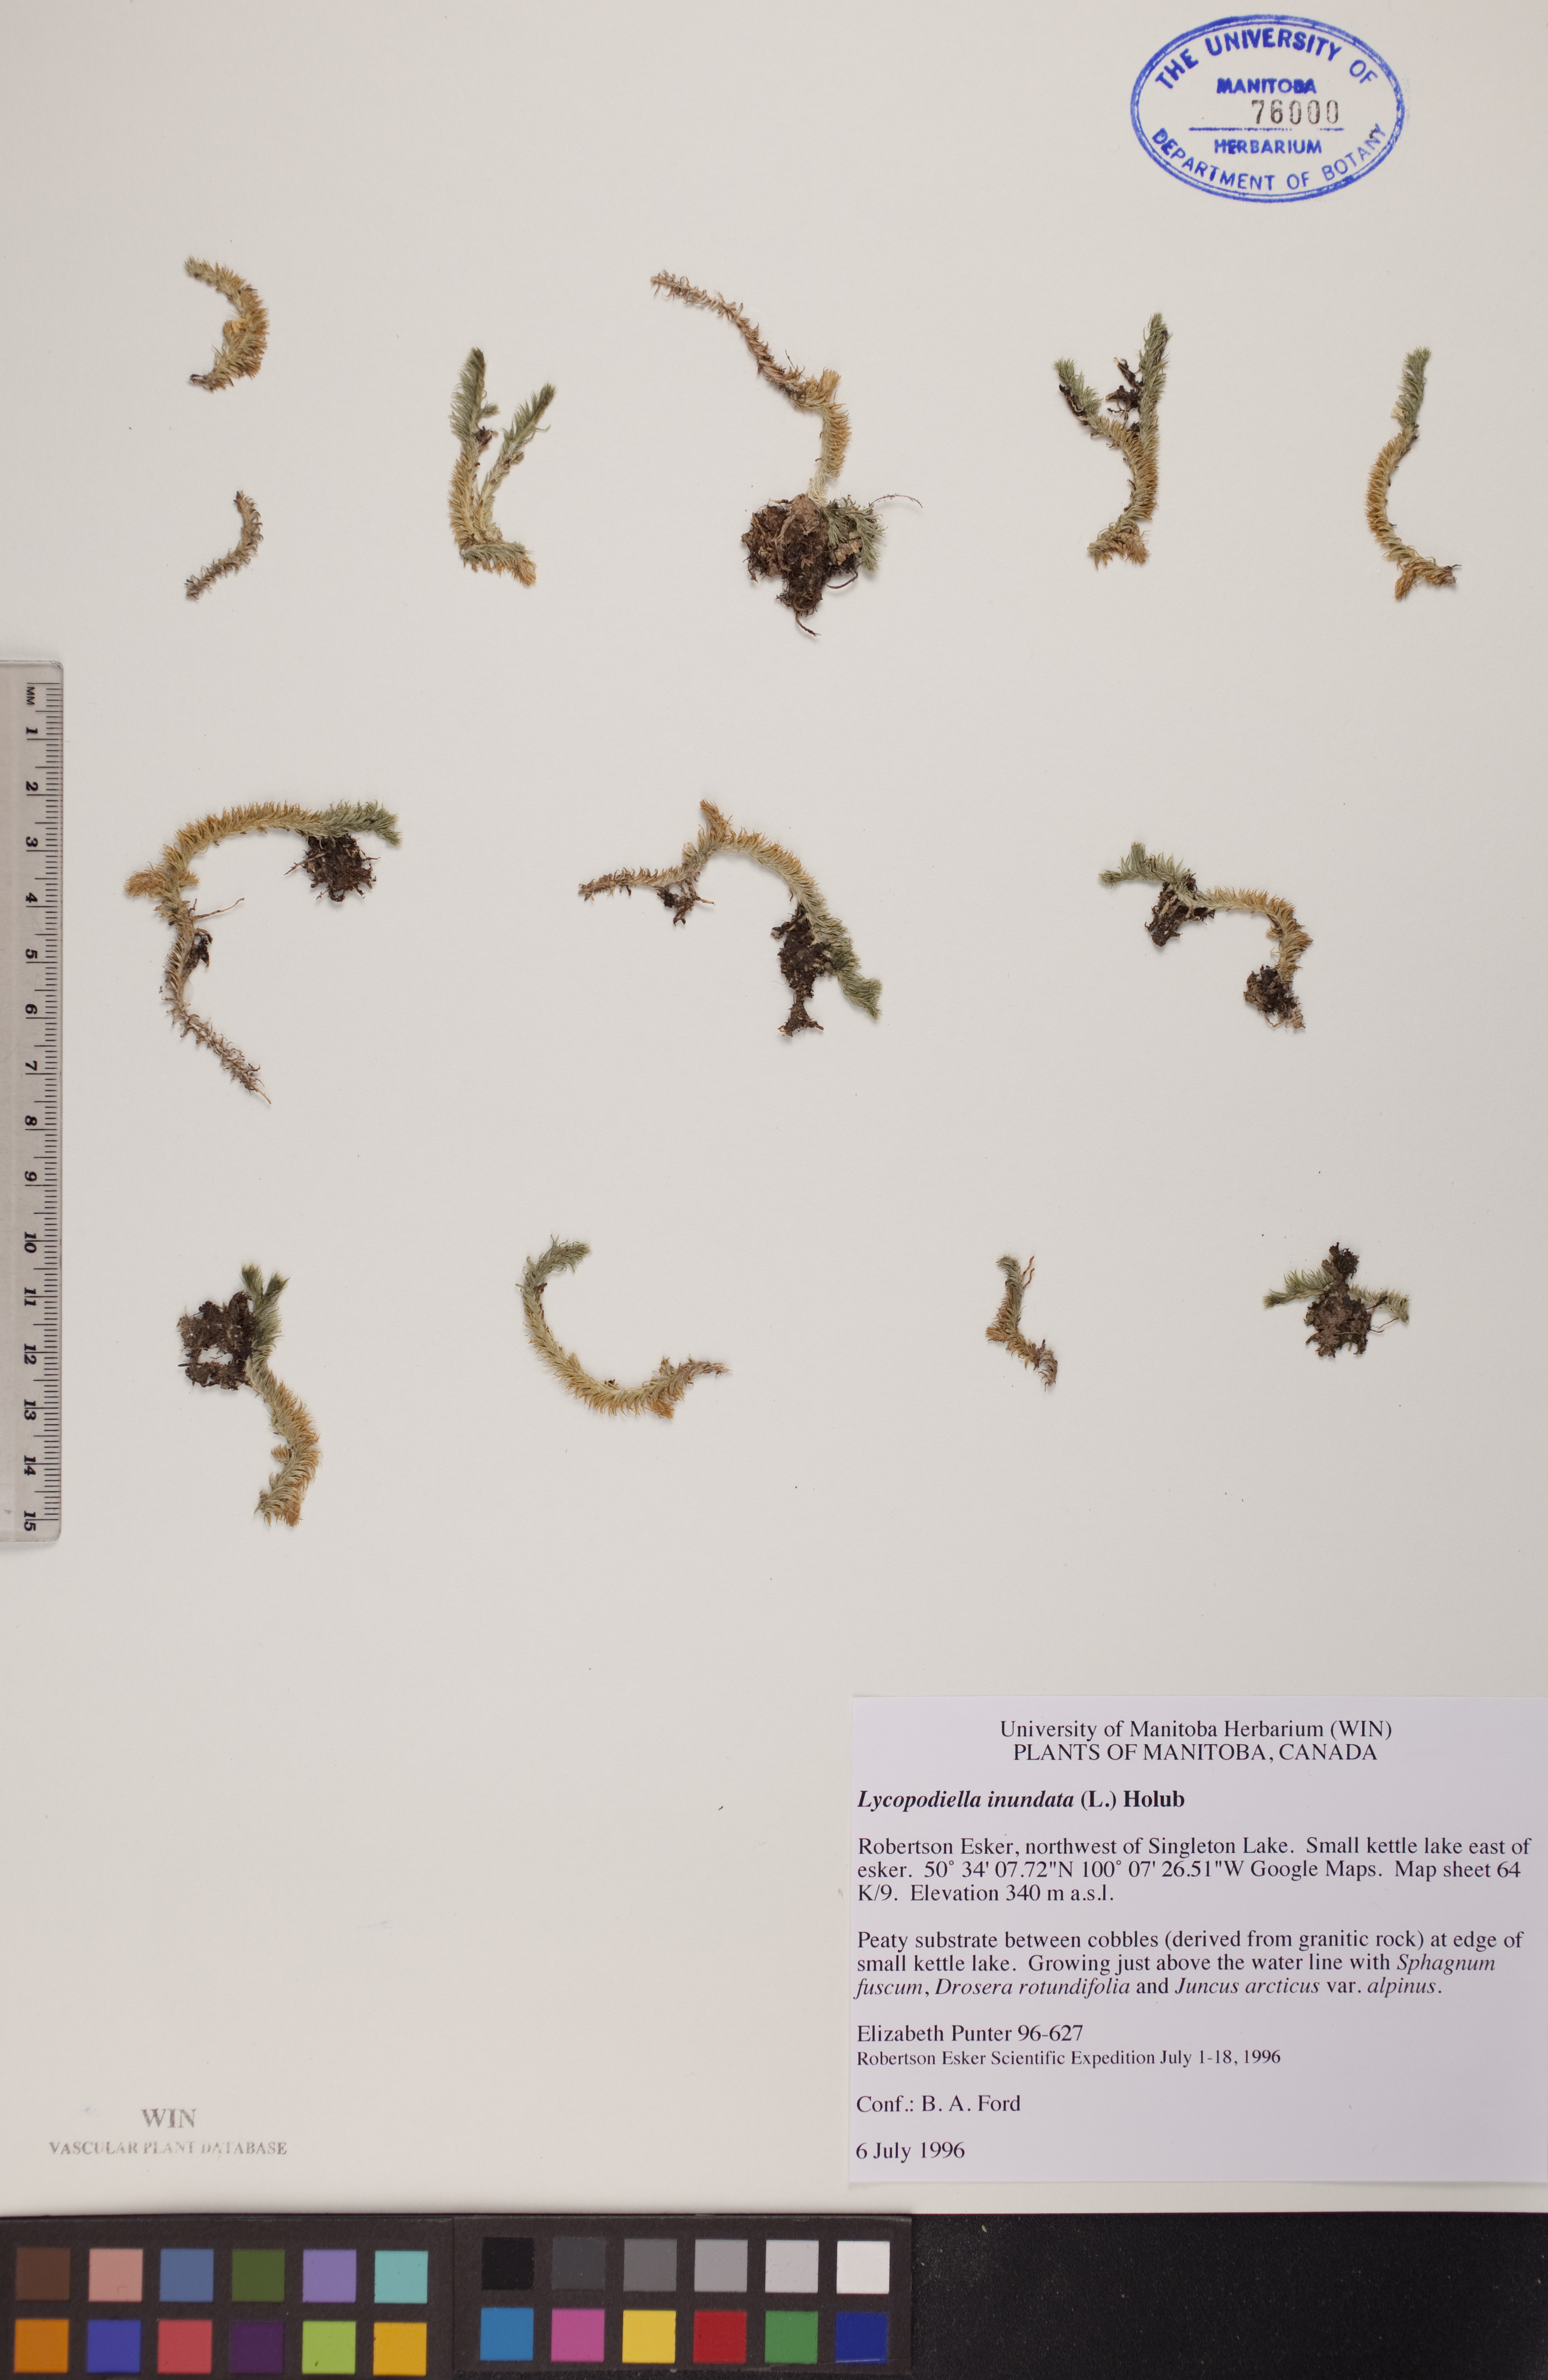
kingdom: Plantae
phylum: Tracheophyta
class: Lycopodiopsida
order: Lycopodiales
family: Lycopodiaceae
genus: Lycopodiella
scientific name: Lycopodiella inundata
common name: Marsh clubmoss
